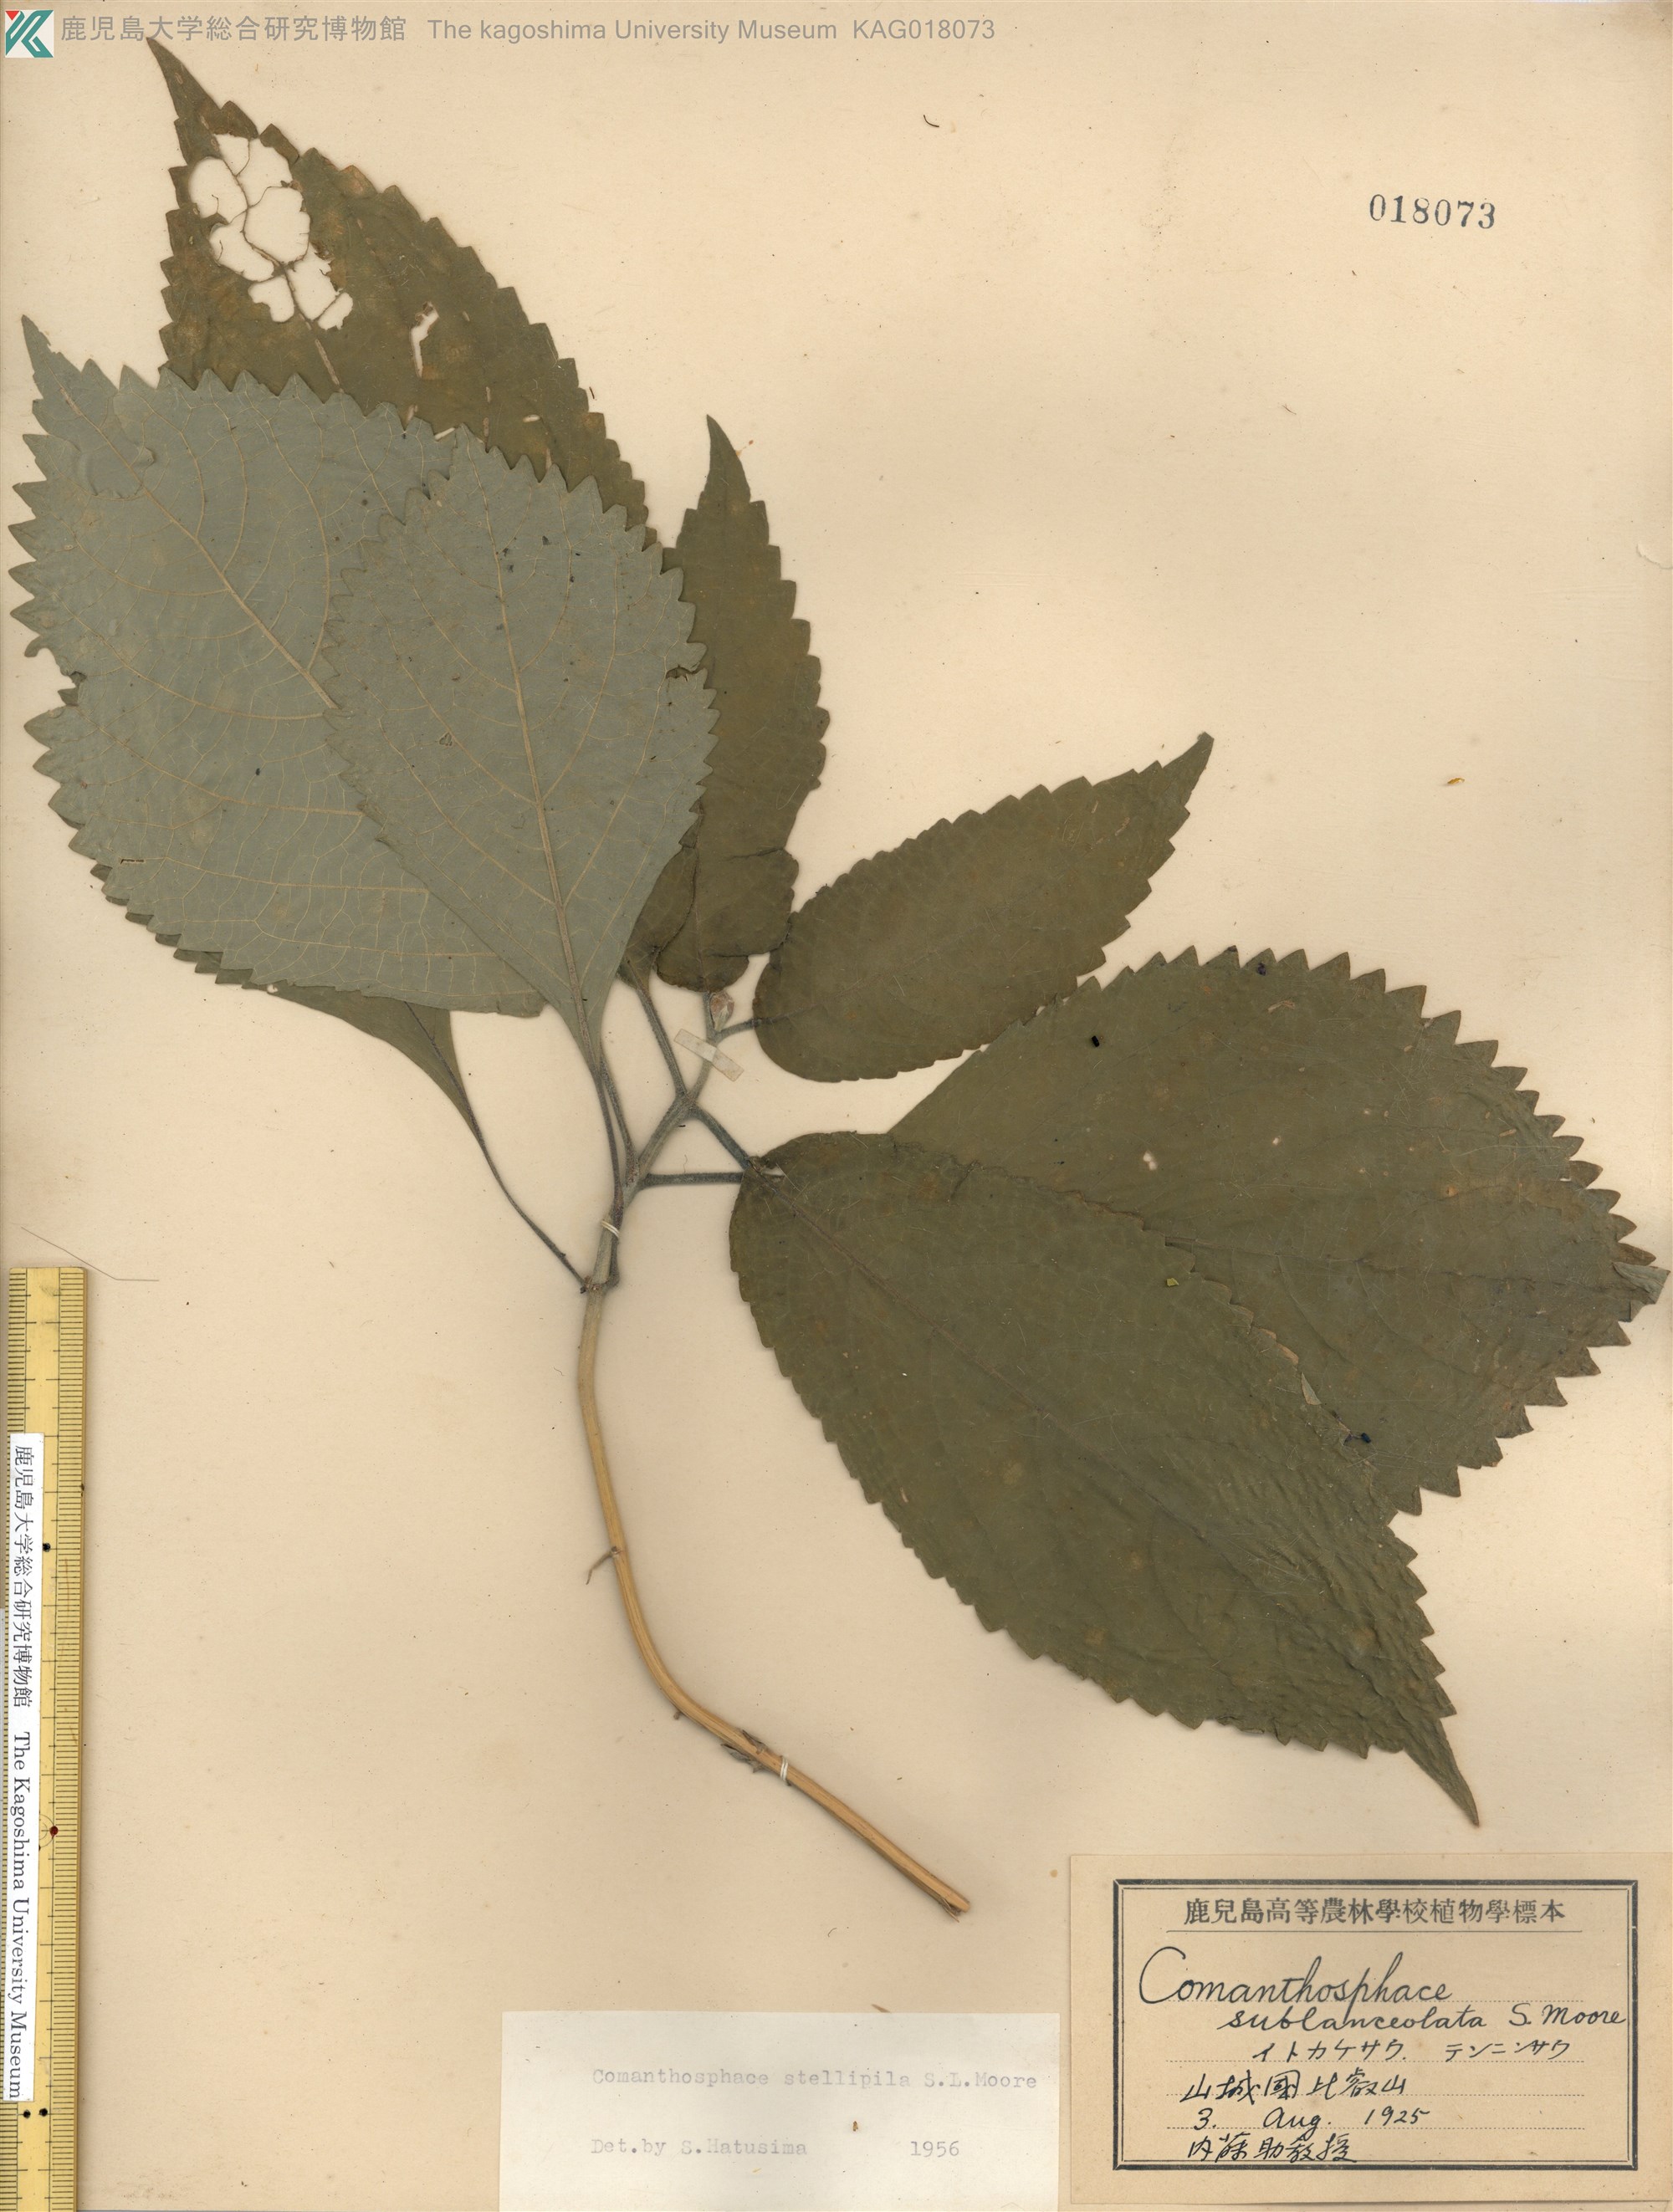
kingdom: Plantae
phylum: Tracheophyta
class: Magnoliopsida
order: Lamiales
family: Lamiaceae
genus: Comanthosphace
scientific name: Comanthosphace stellipila
